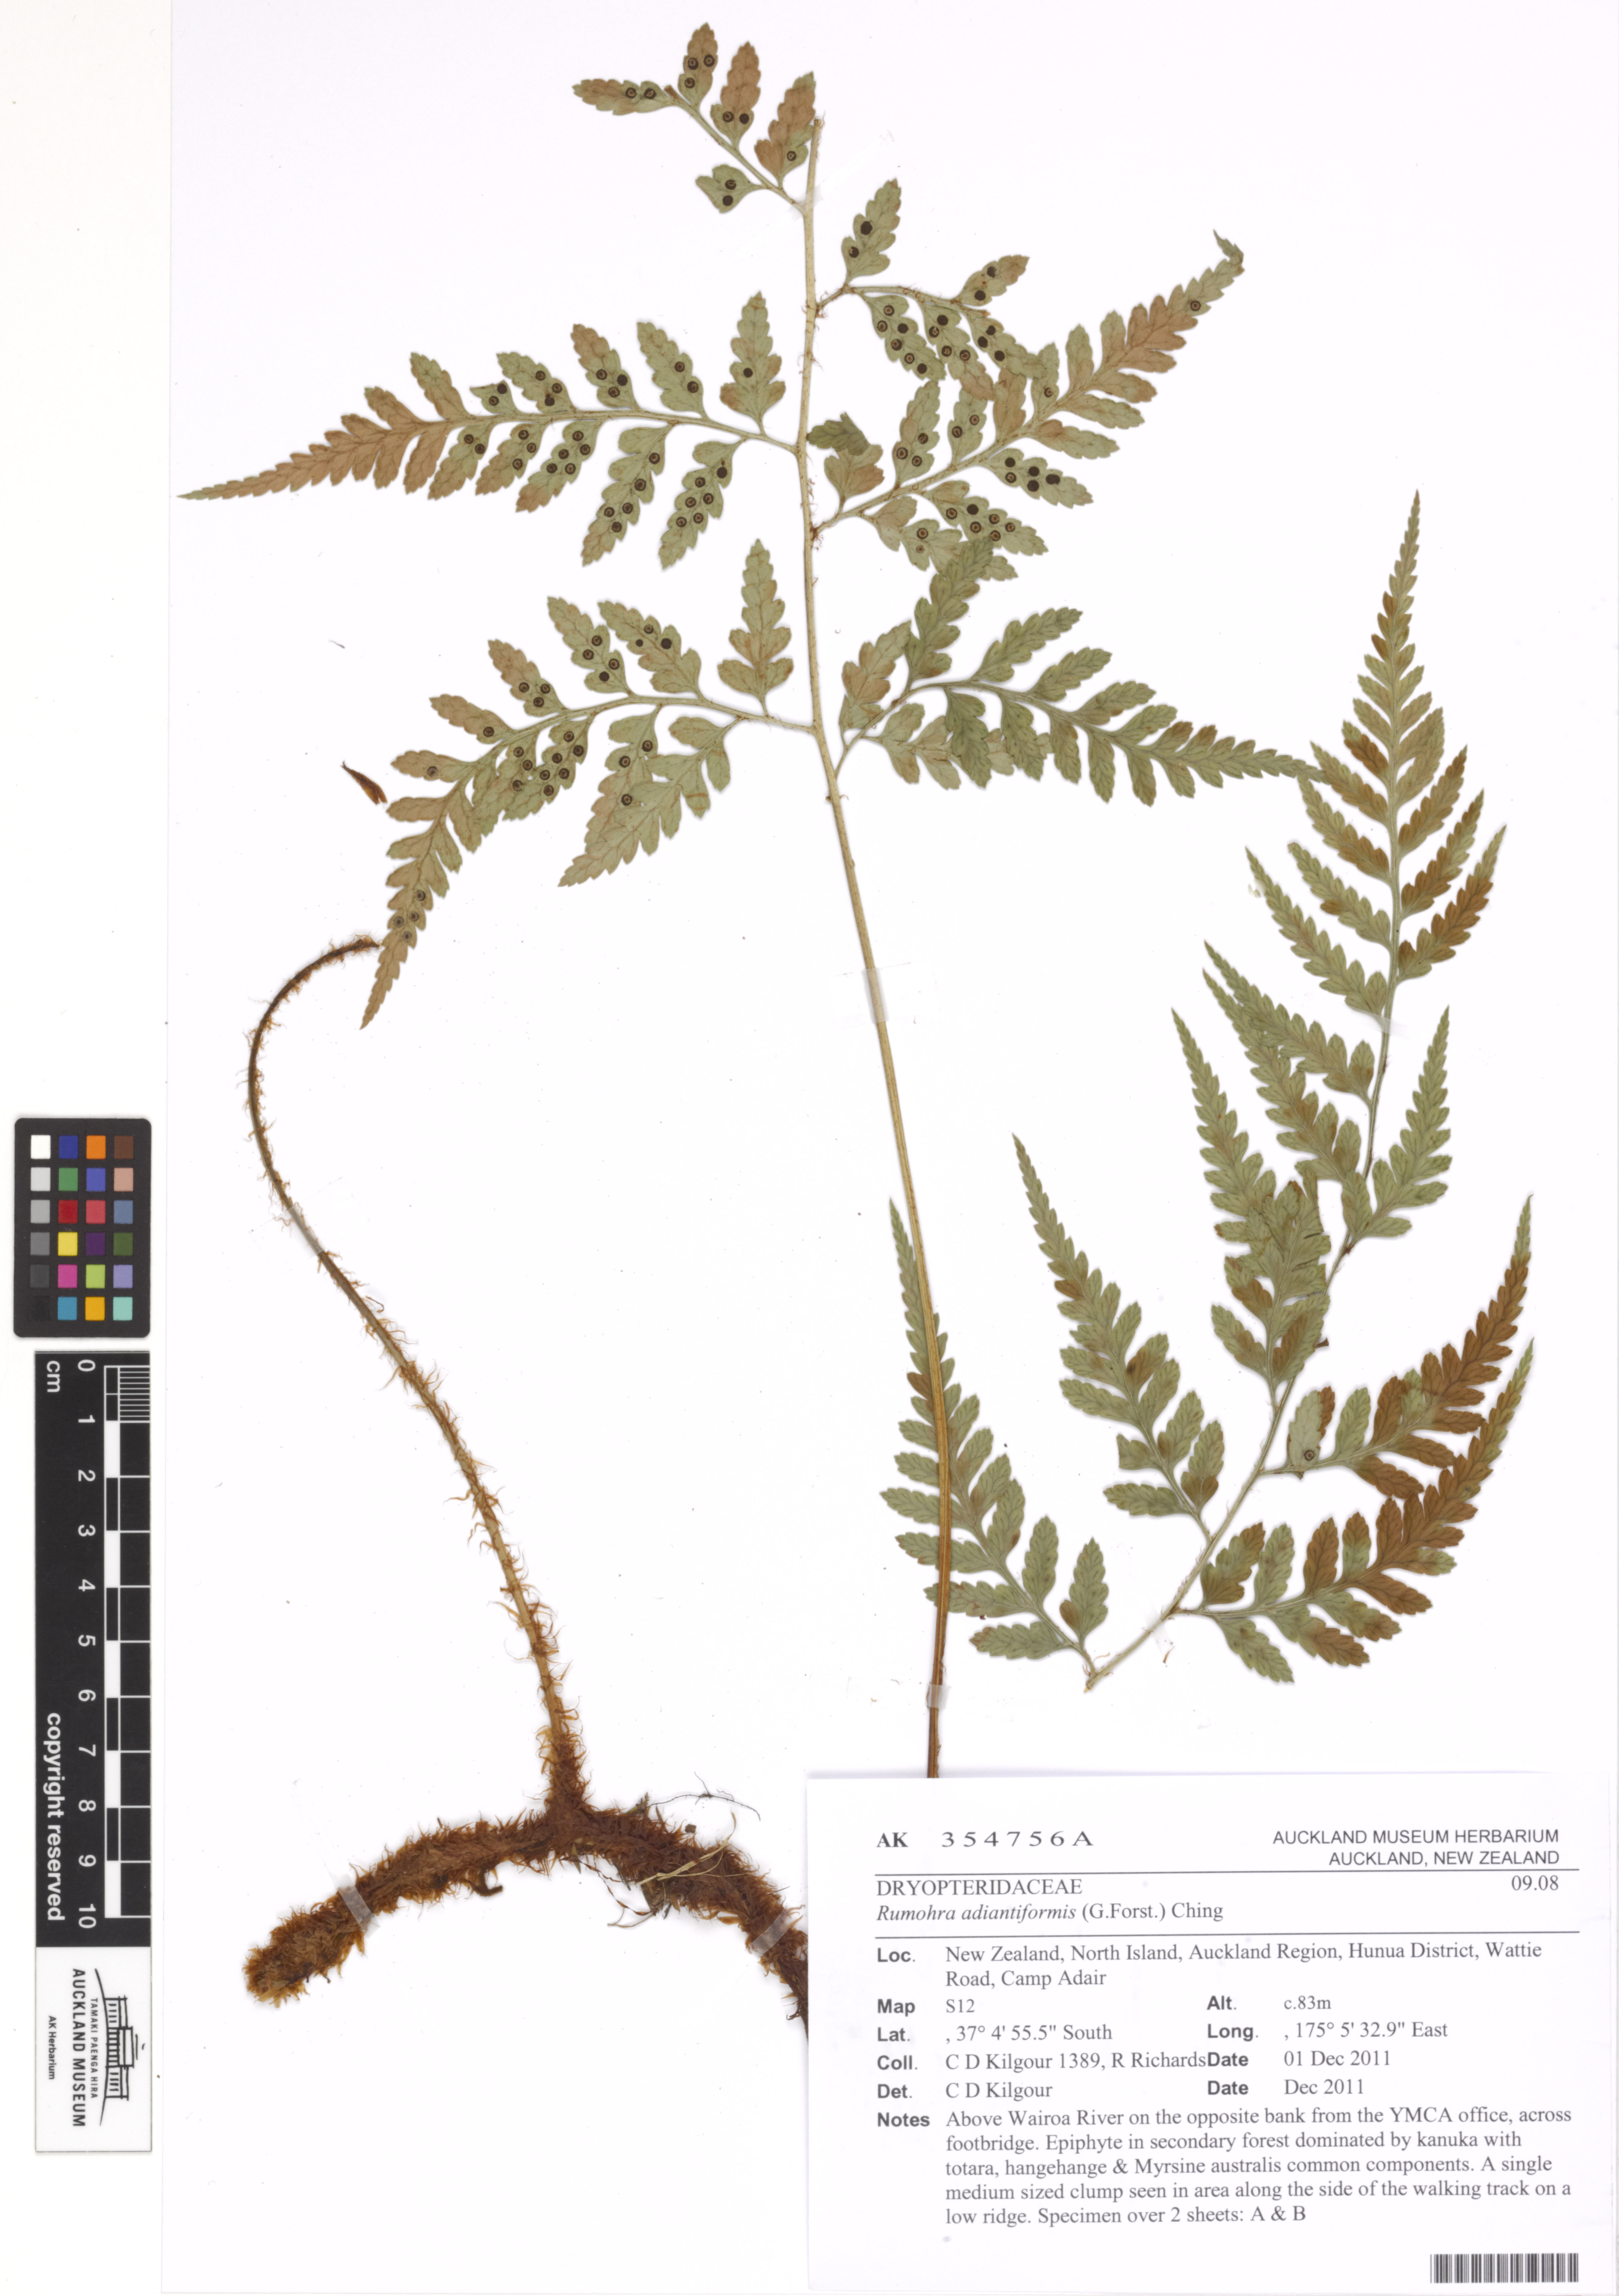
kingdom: Plantae
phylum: Tracheophyta
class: Polypodiopsida
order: Polypodiales
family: Dryopteridaceae
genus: Rumohra
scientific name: Rumohra adiantiformis
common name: Leather fern
